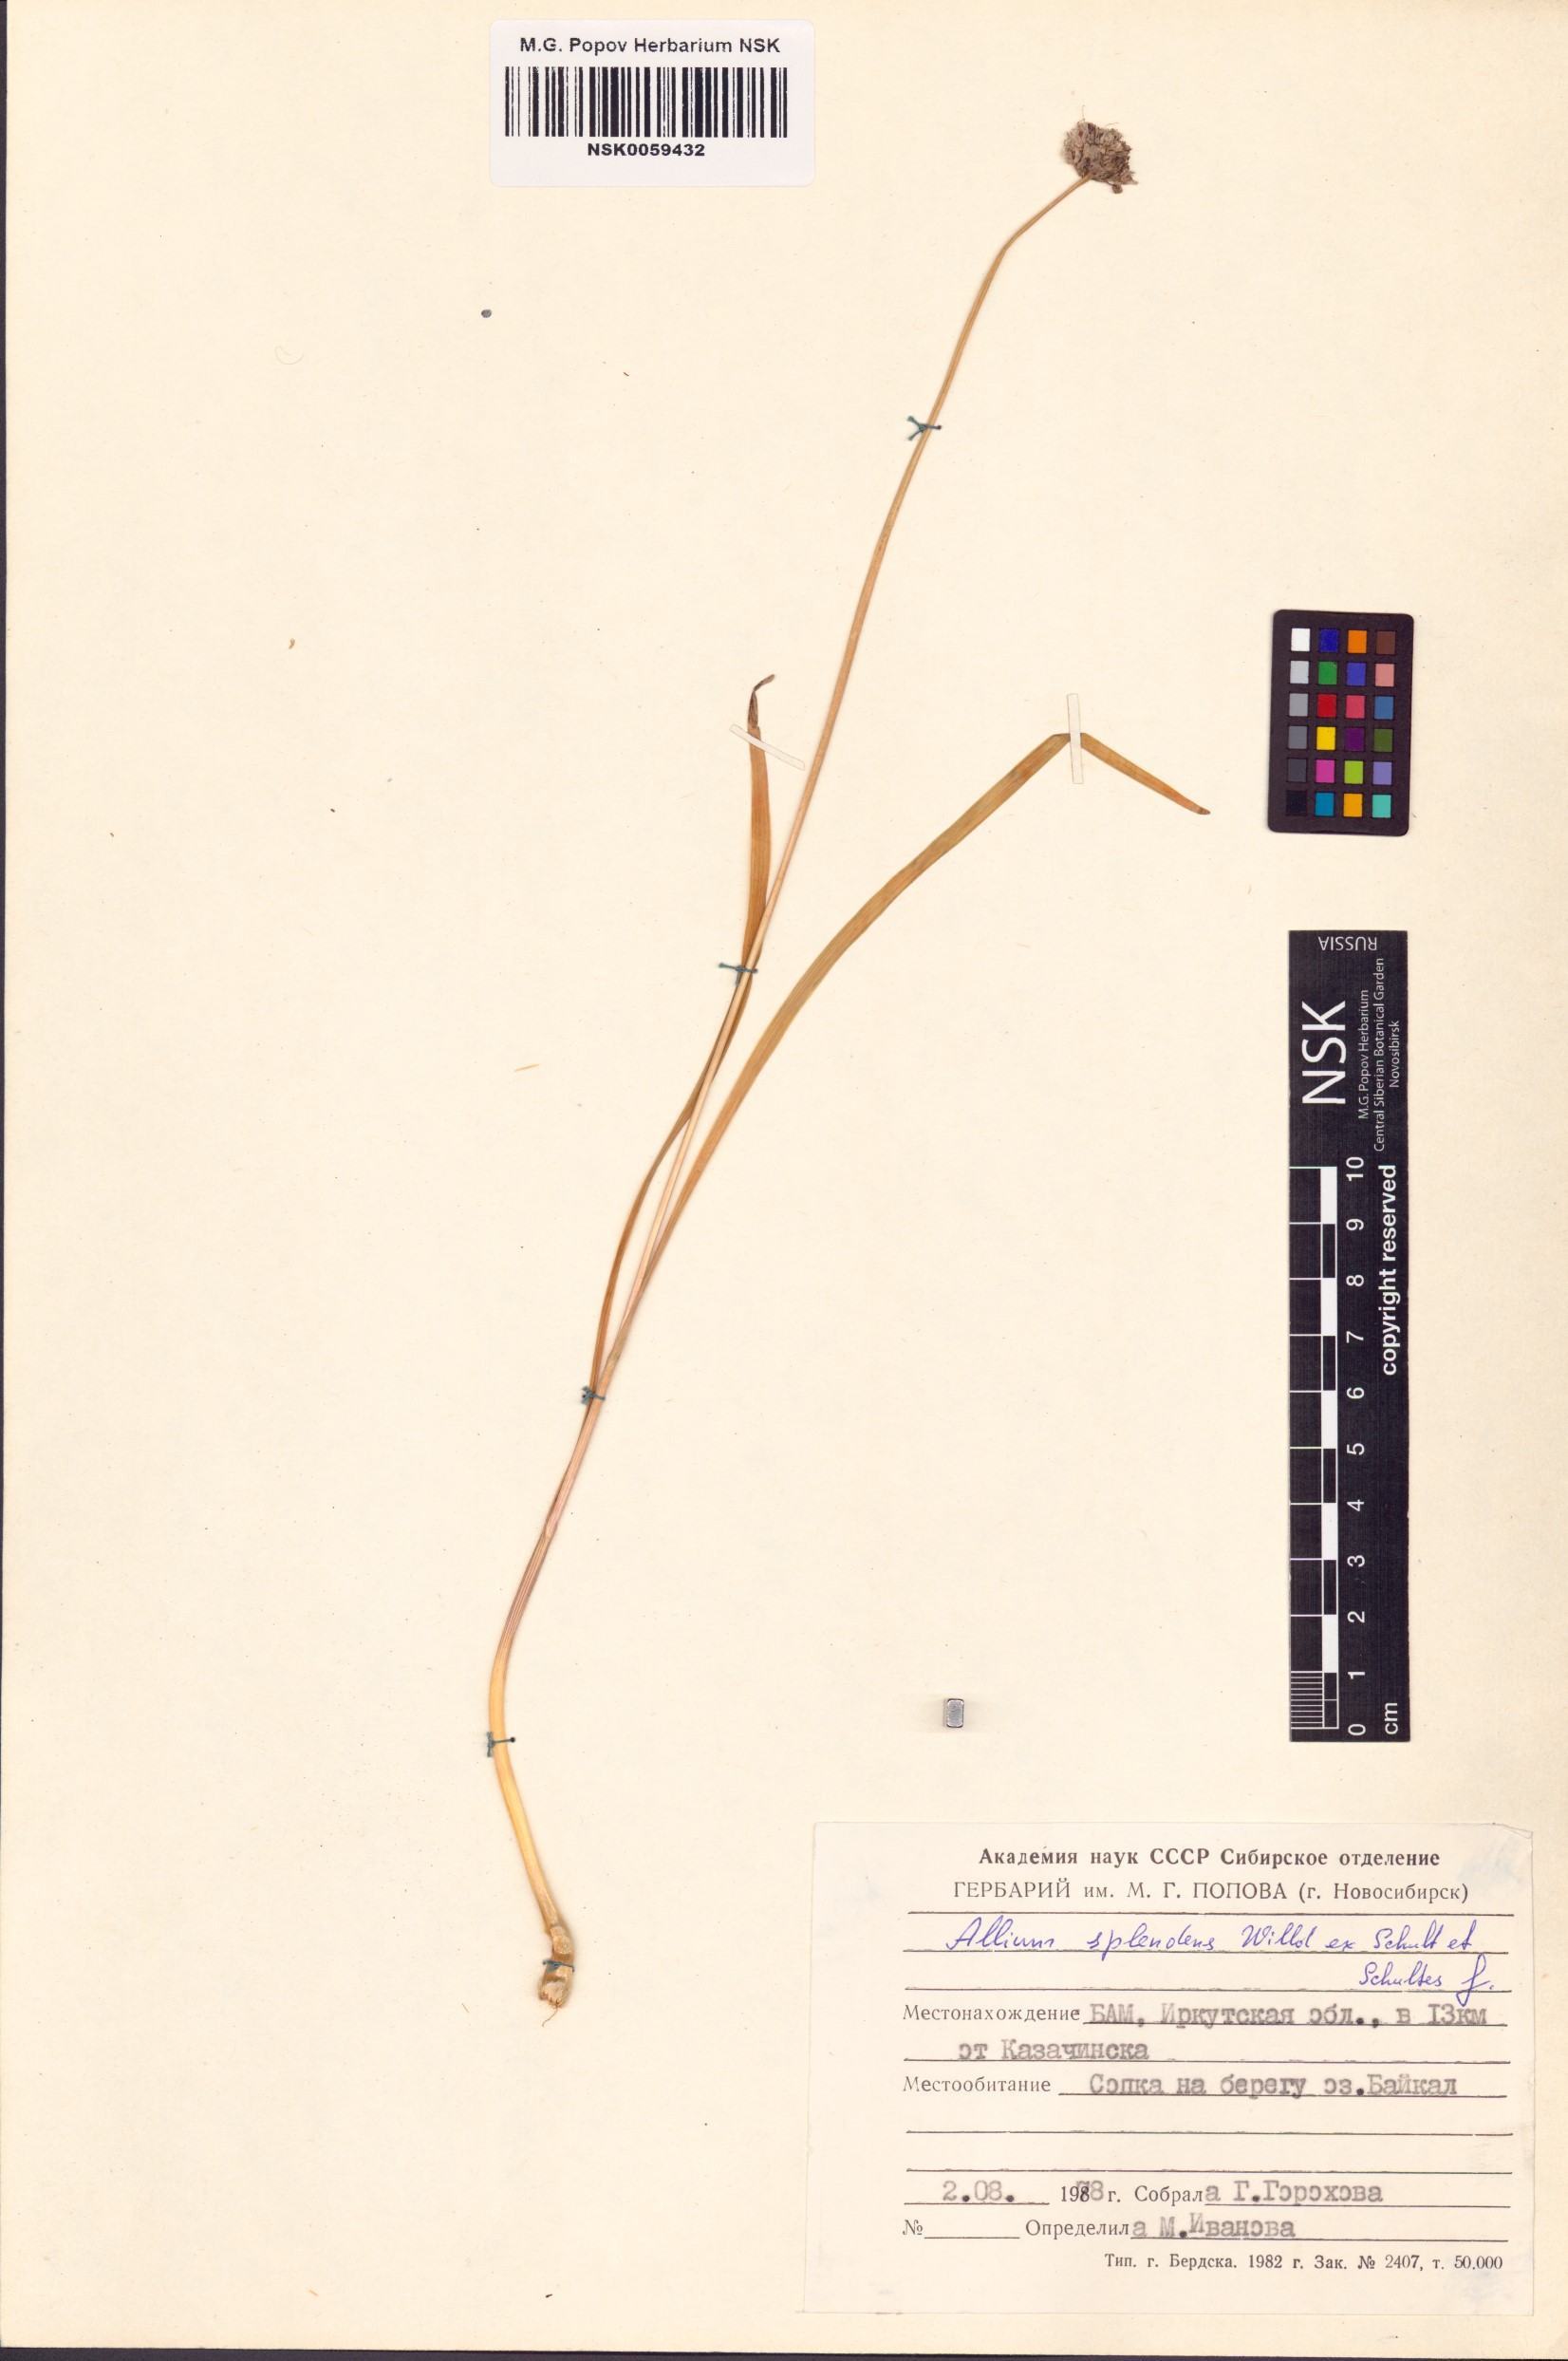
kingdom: Plantae
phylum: Tracheophyta
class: Liliopsida
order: Asparagales
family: Amaryllidaceae
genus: Allium
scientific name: Allium splendens
